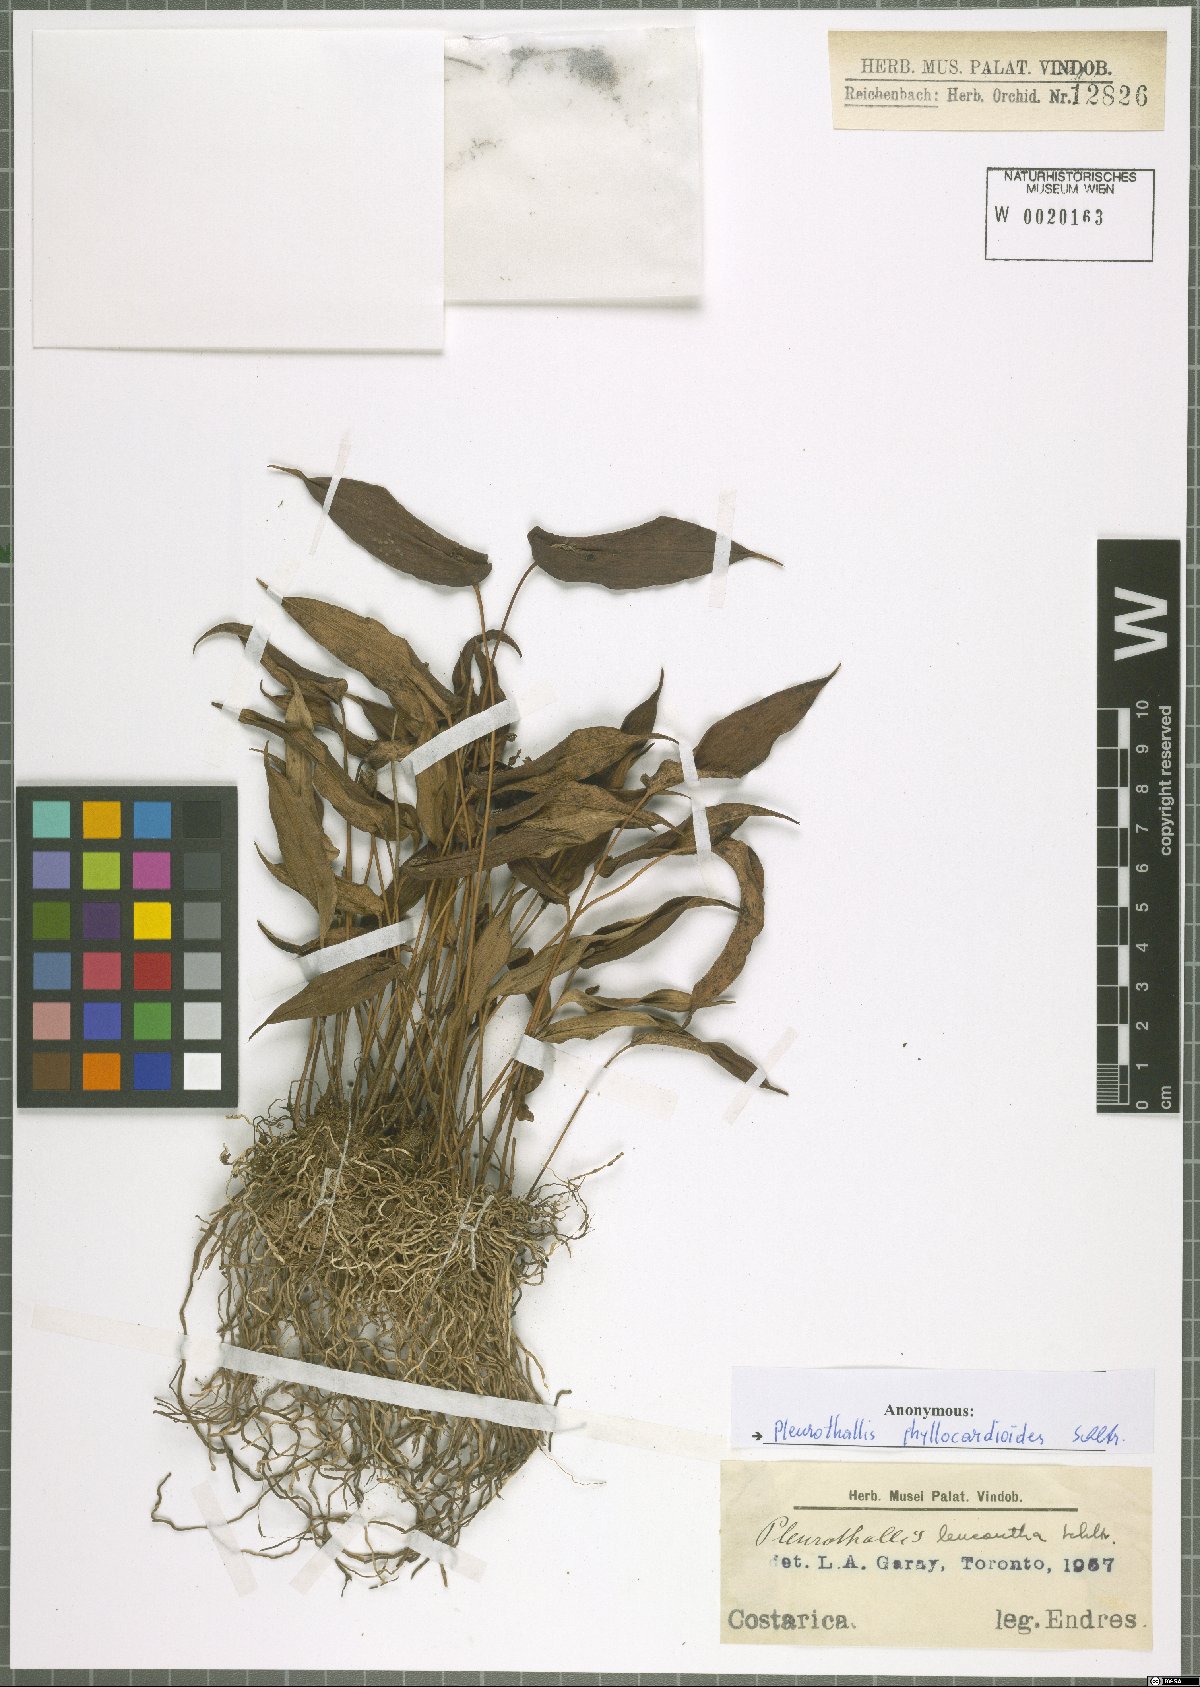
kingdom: Plantae
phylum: Tracheophyta
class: Liliopsida
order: Asparagales
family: Orchidaceae
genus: Pleurothallis
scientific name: Pleurothallis phyllocardioides
